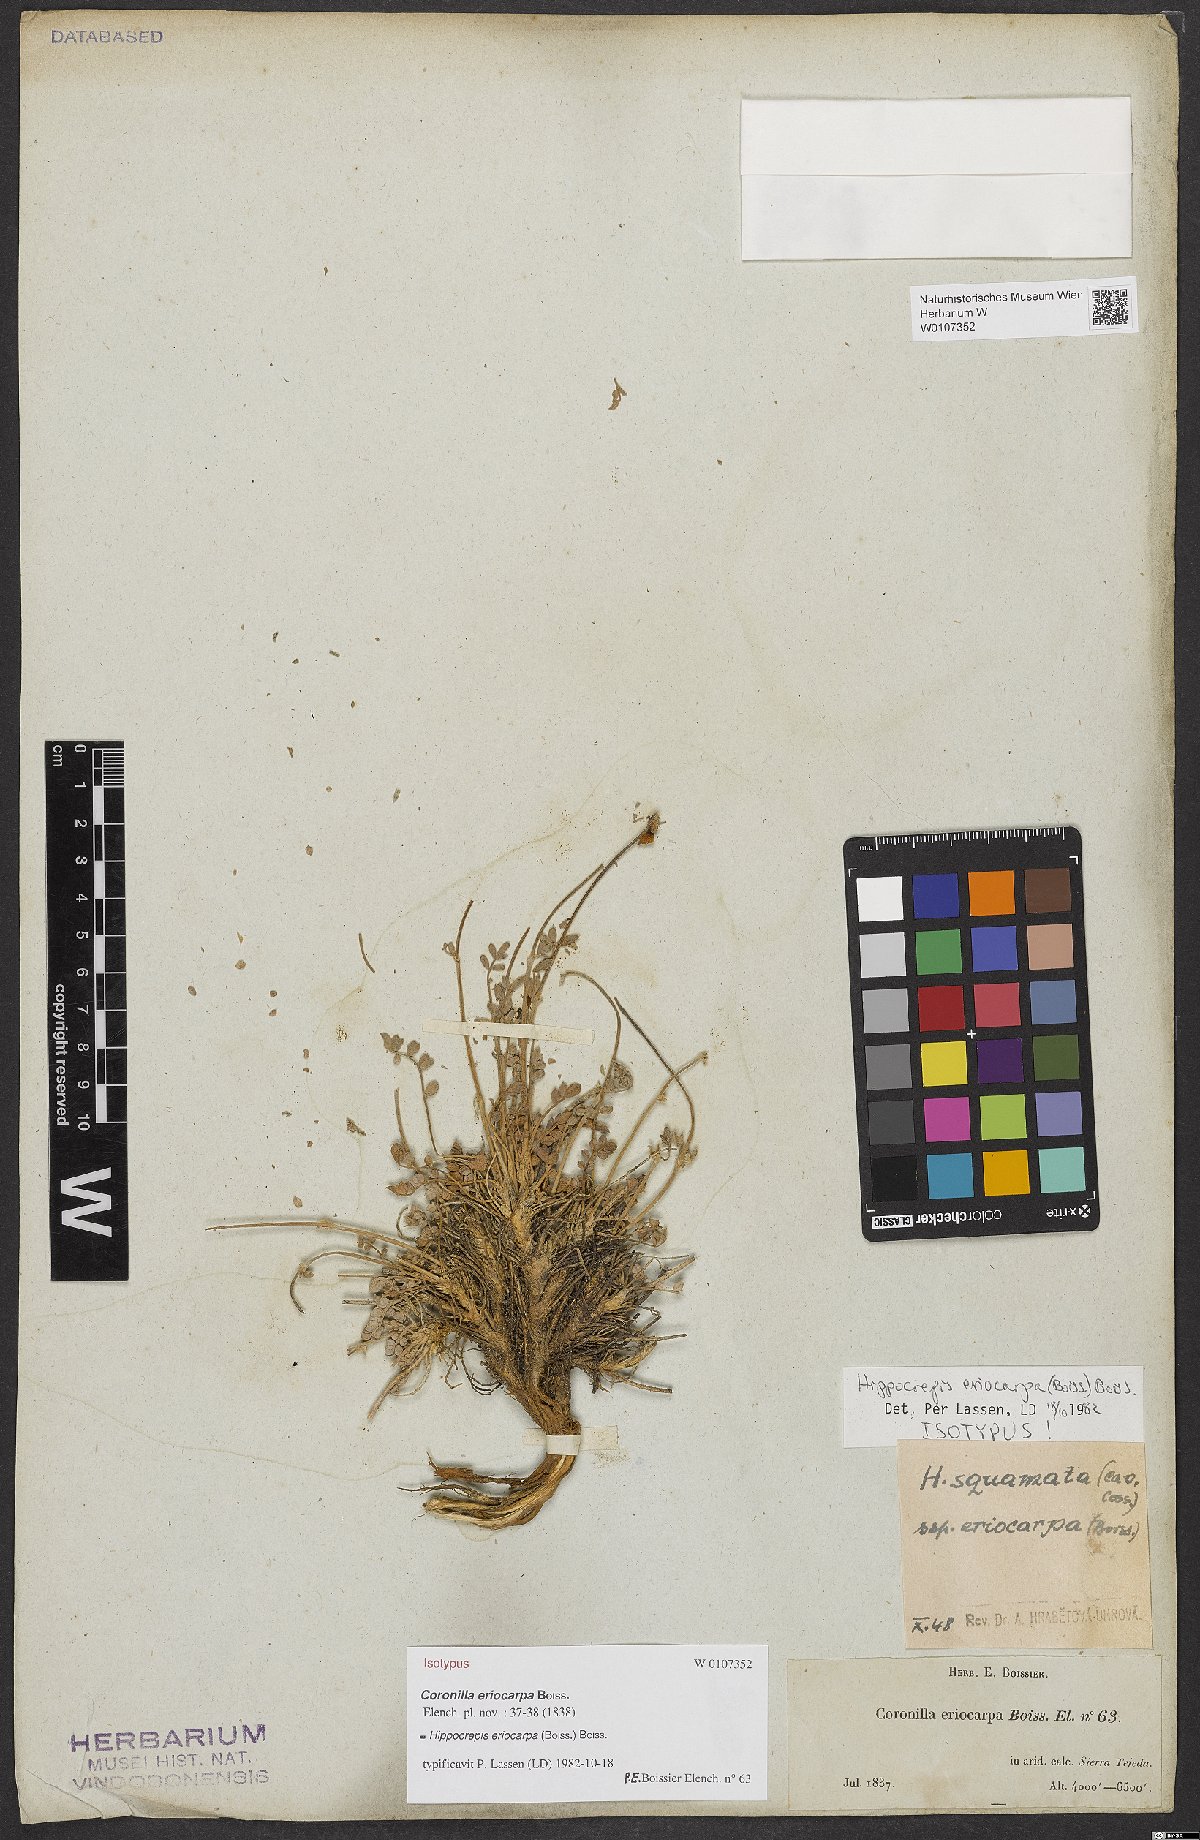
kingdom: Plantae
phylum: Tracheophyta
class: Magnoliopsida
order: Fabales
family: Fabaceae
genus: Hippocrepis
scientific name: Hippocrepis eriocarpa
